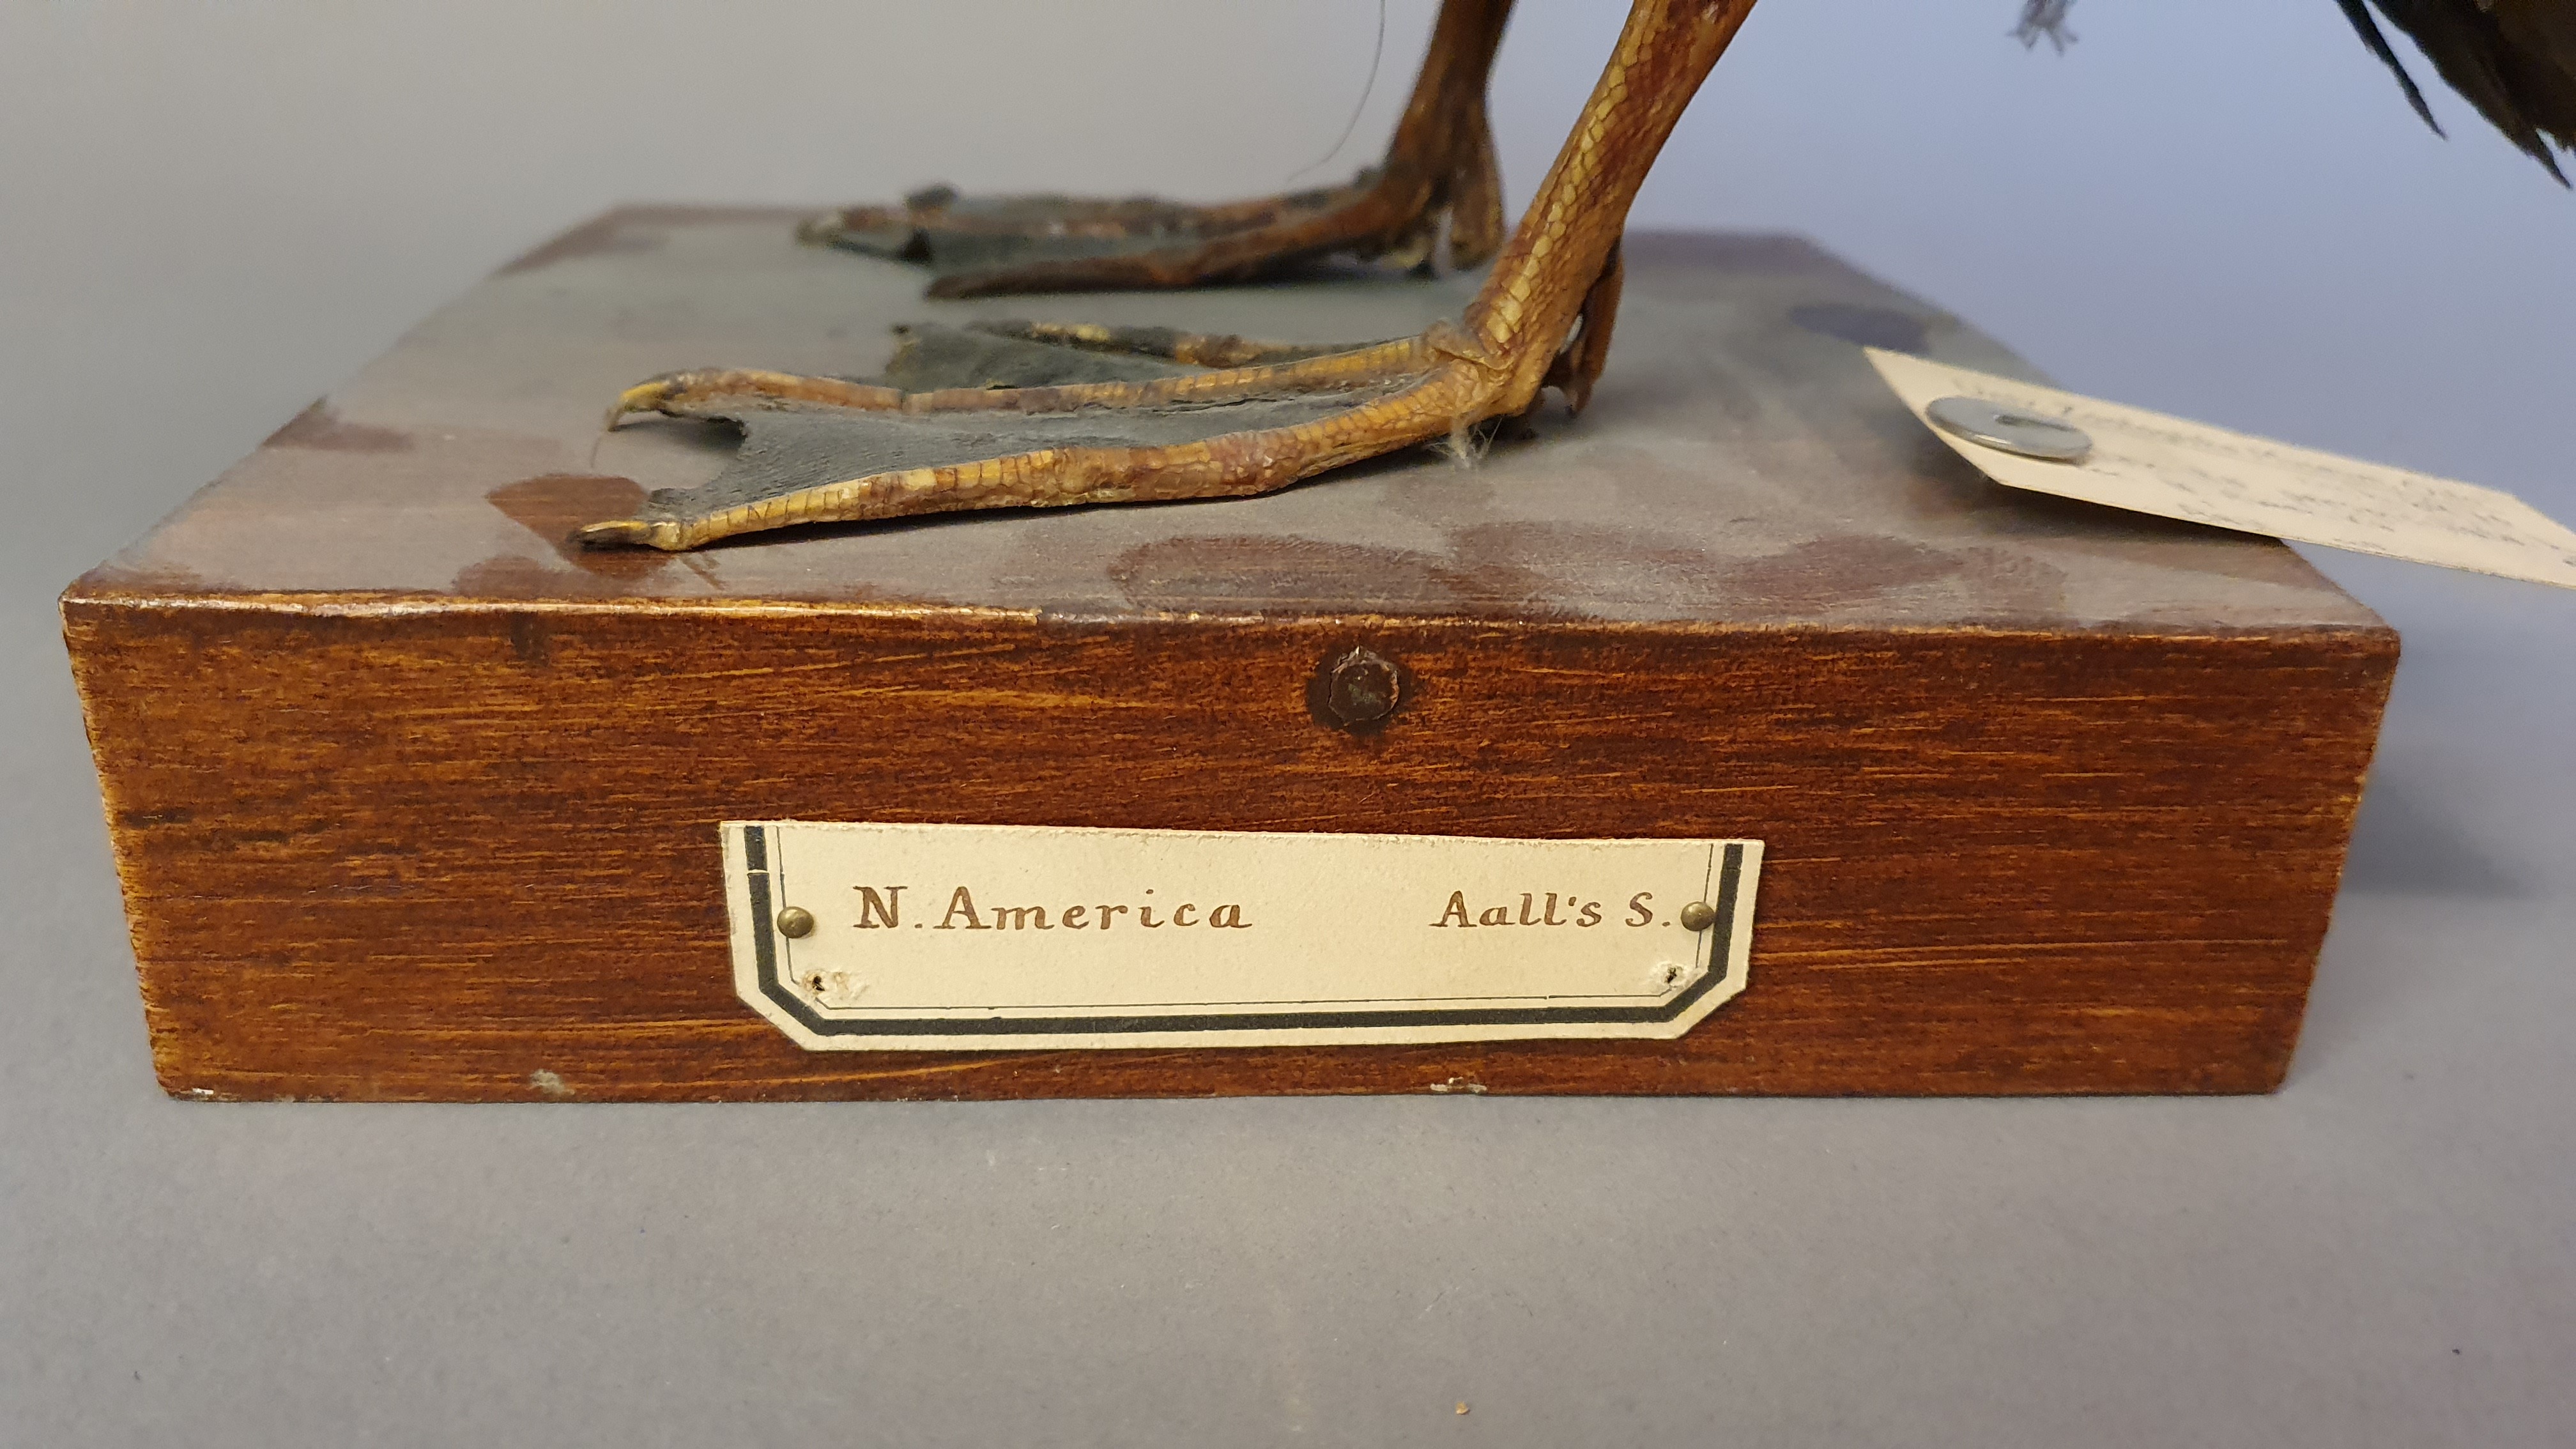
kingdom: Animalia
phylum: Chordata
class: Aves
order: Anseriformes
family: Anatidae
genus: Melanitta
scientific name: Melanitta perspicillata
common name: Surf scoter
